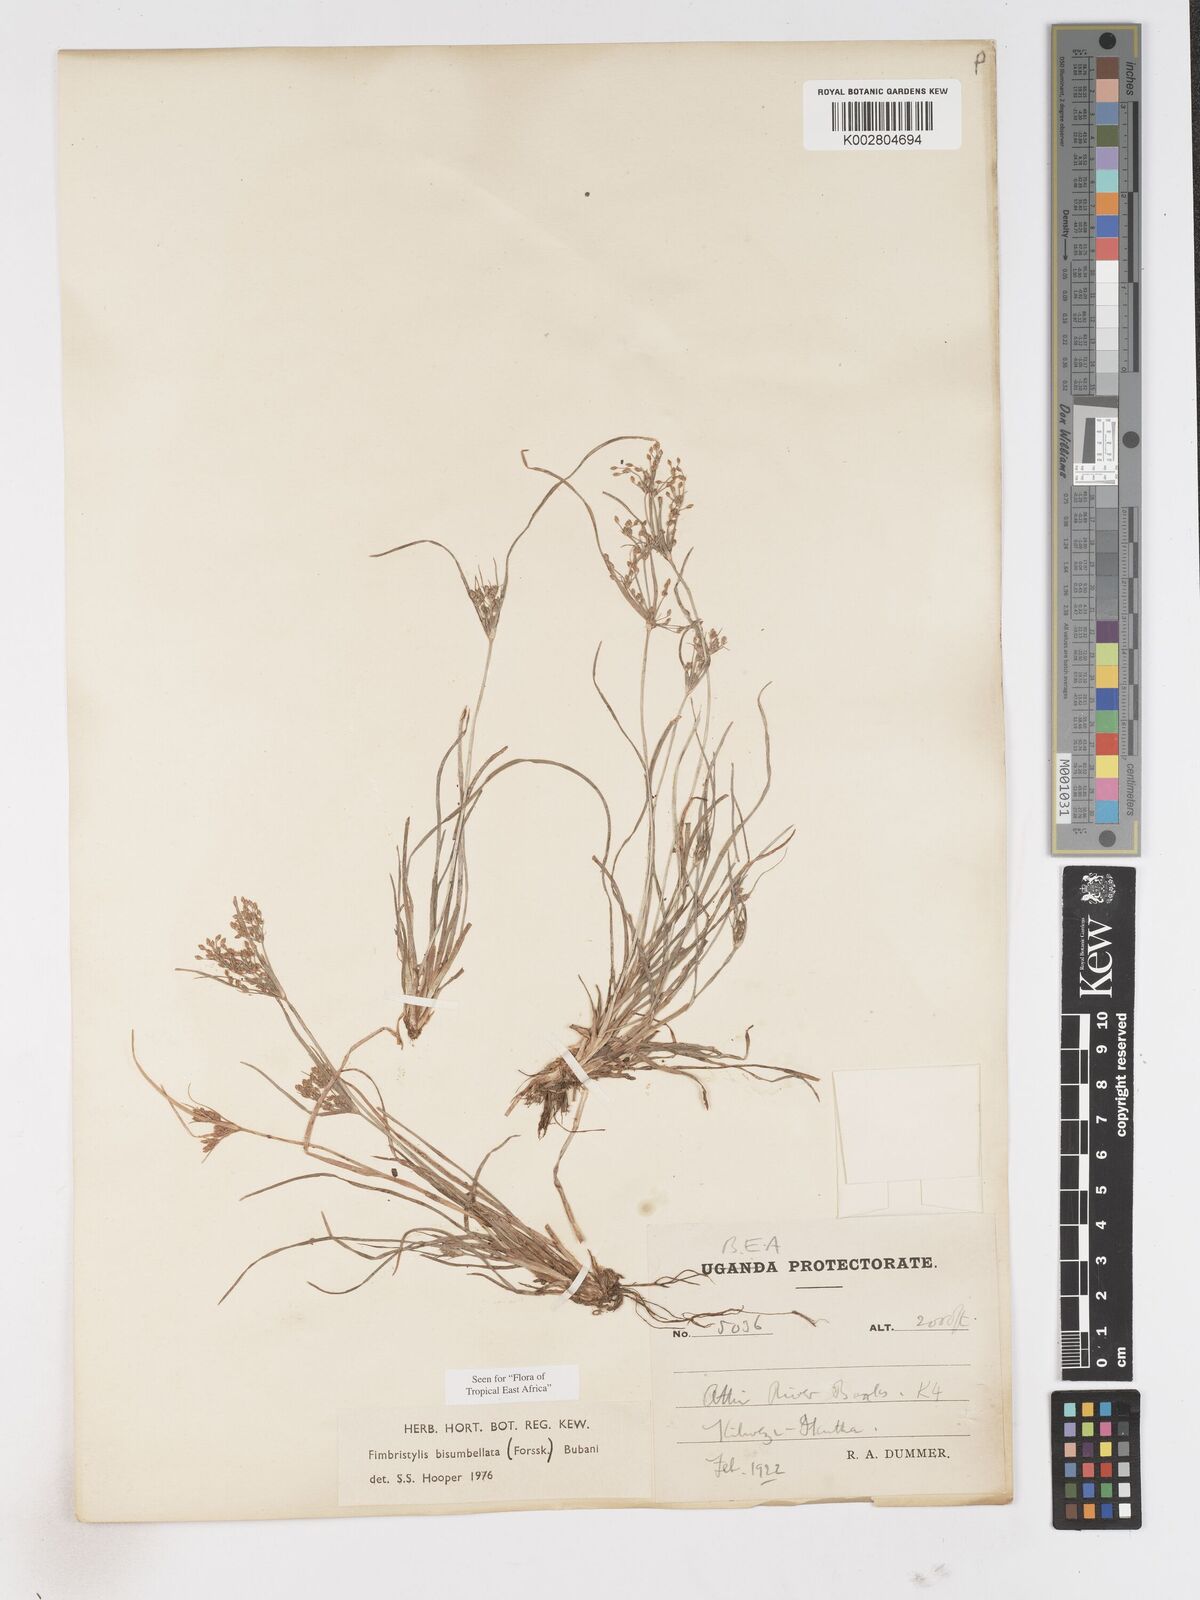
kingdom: Plantae
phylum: Tracheophyta
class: Liliopsida
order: Poales
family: Cyperaceae
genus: Fimbristylis
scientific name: Fimbristylis bisumbellata
